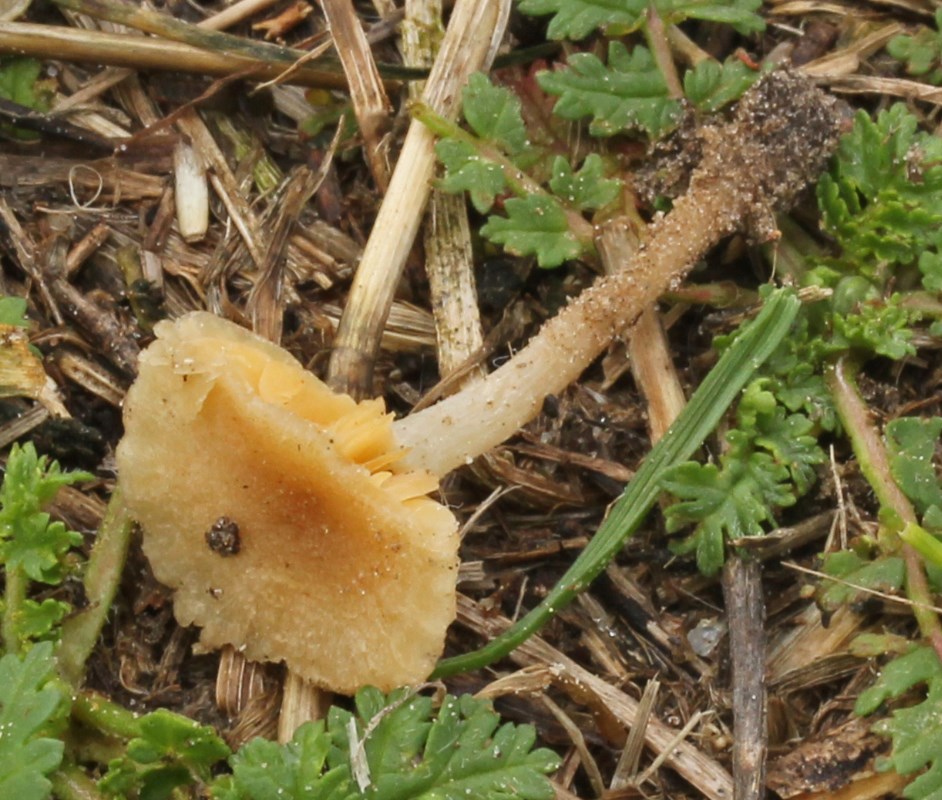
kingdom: Fungi
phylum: Basidiomycota
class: Agaricomycetes
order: Agaricales
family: Tubariaceae
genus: Tubaria
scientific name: Tubaria dispersa
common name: tjørne-fnughat
